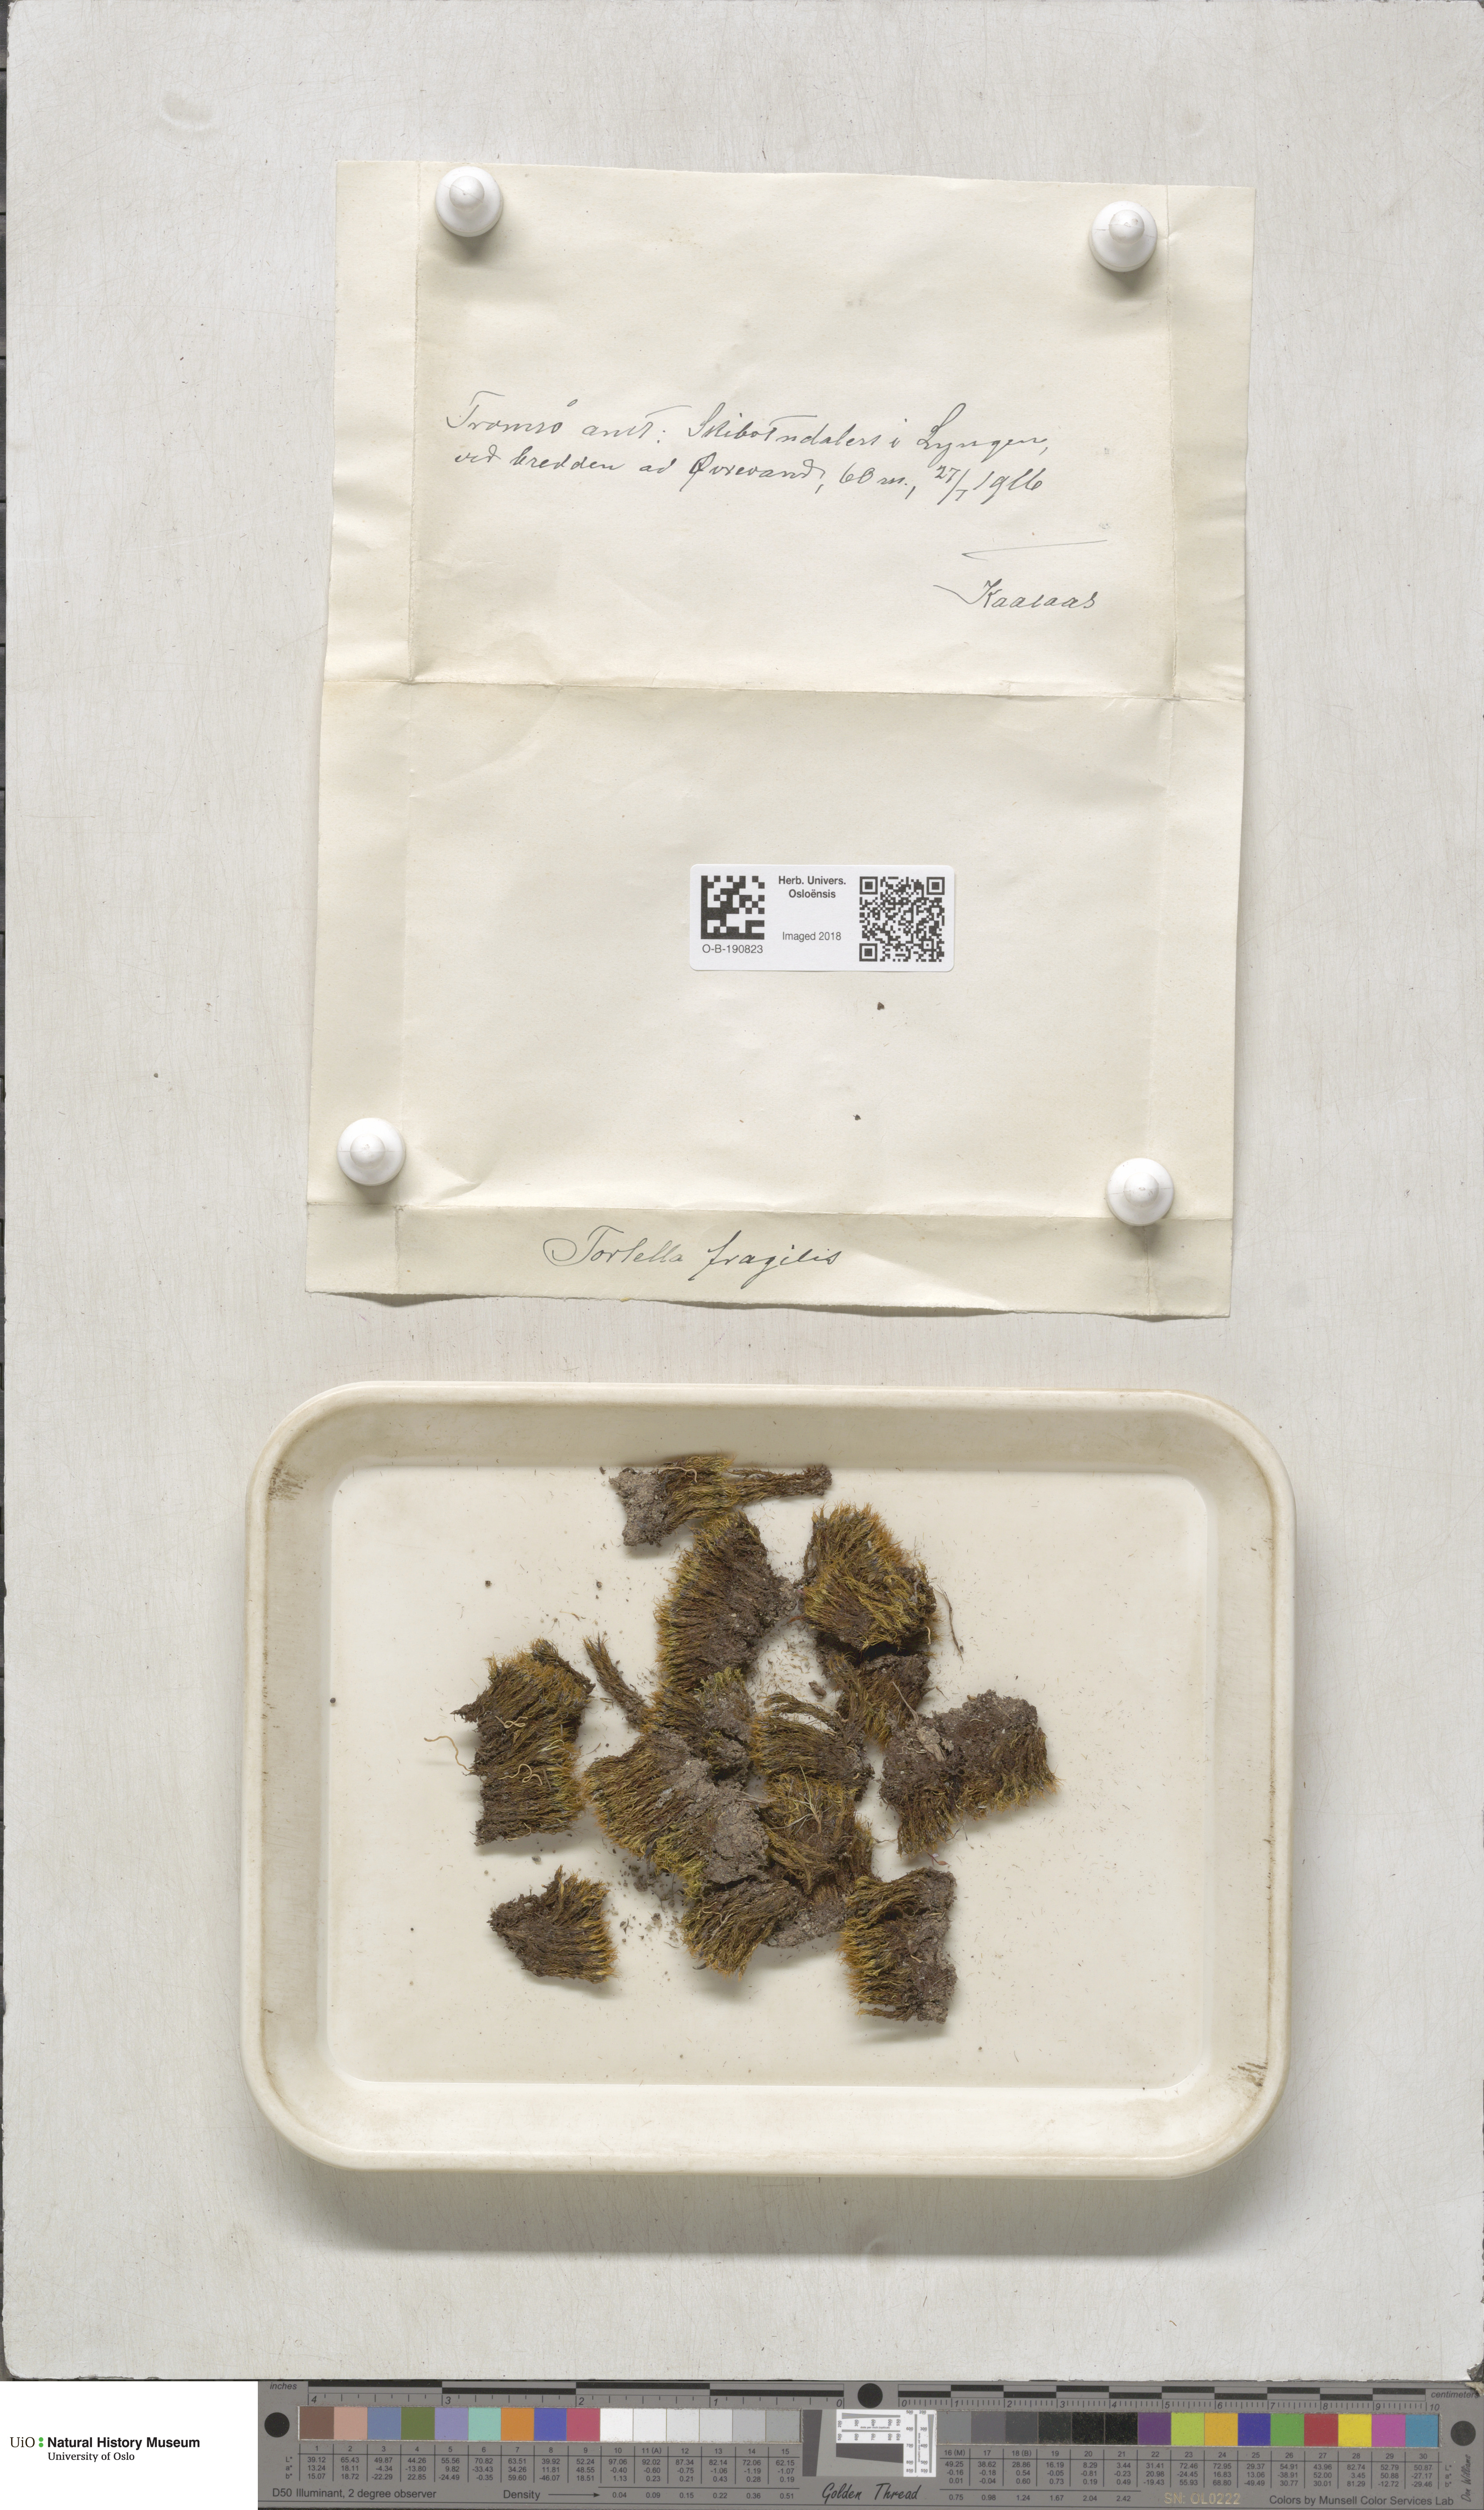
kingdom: Plantae
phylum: Bryophyta
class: Bryopsida
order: Pottiales
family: Pottiaceae
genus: Tortella
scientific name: Tortella fragilis
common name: Fragile twisted moss
